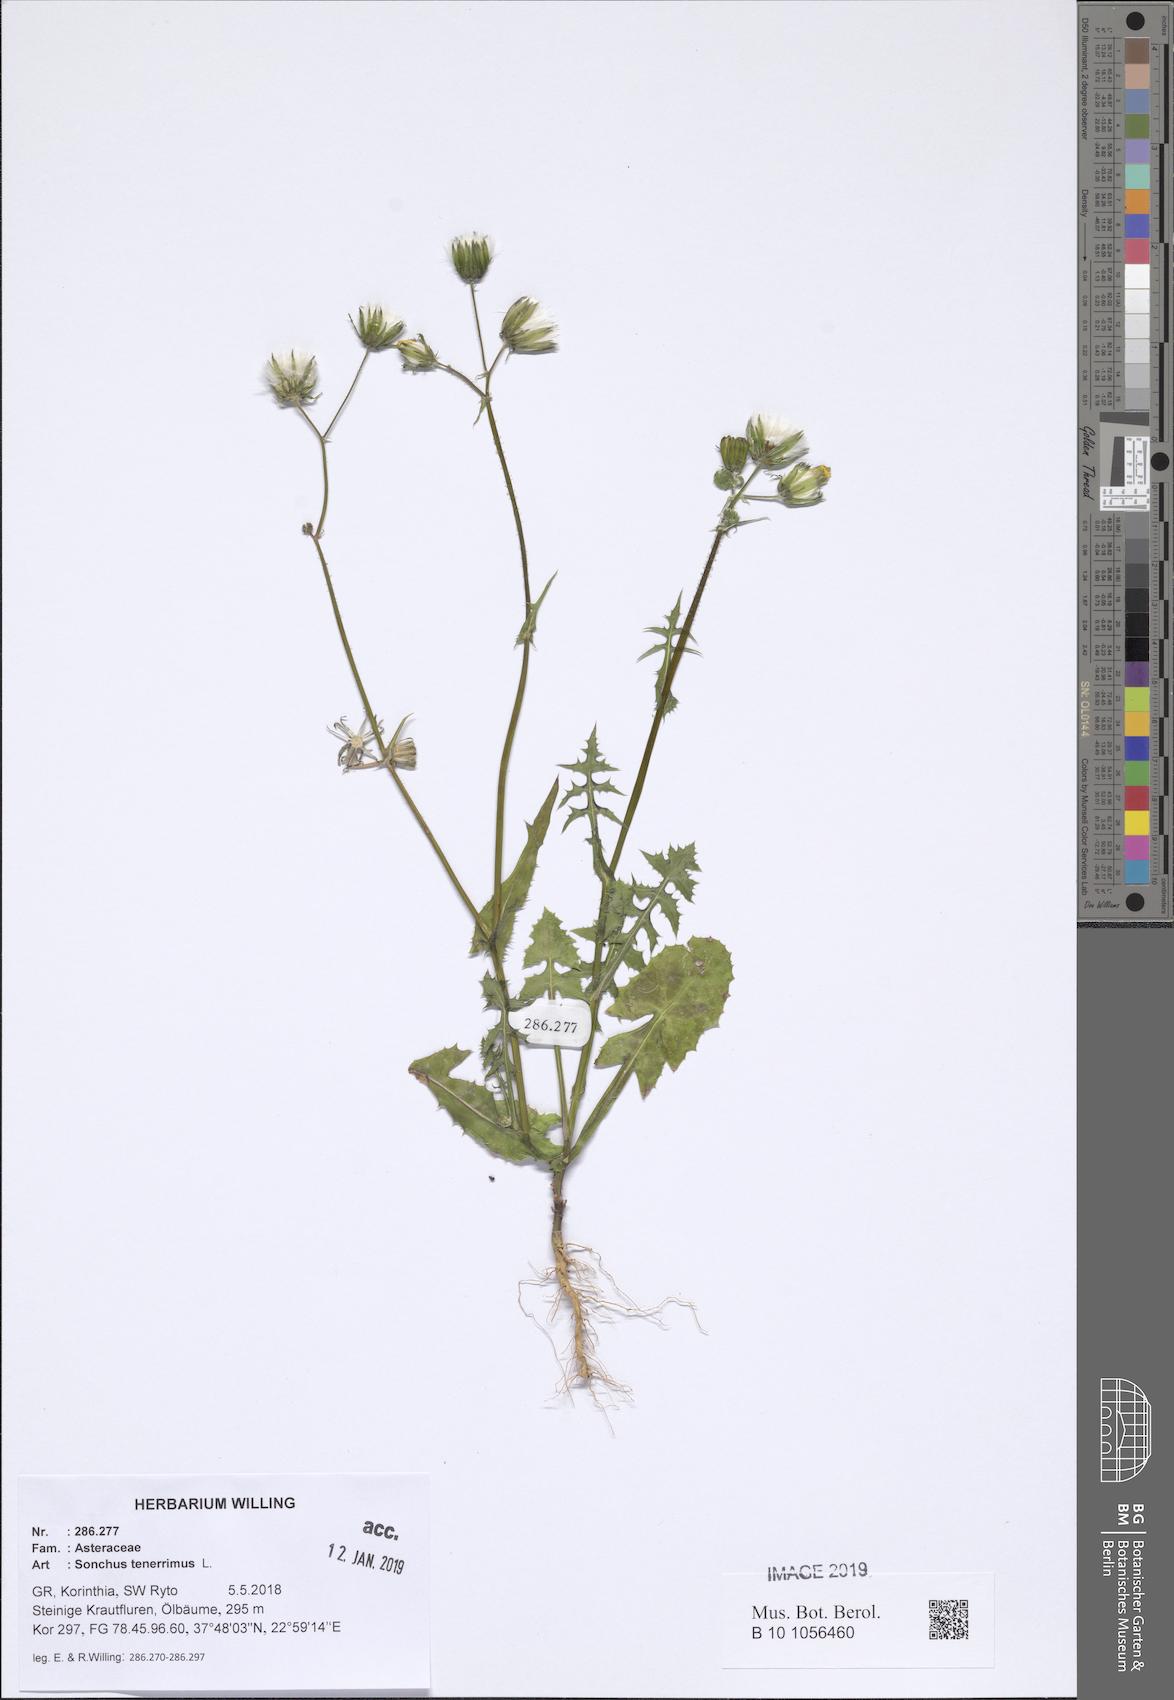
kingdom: Plantae
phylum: Tracheophyta
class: Magnoliopsida
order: Asterales
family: Asteraceae
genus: Sonchus
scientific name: Sonchus tenerrimus
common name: Clammy sowthistle
